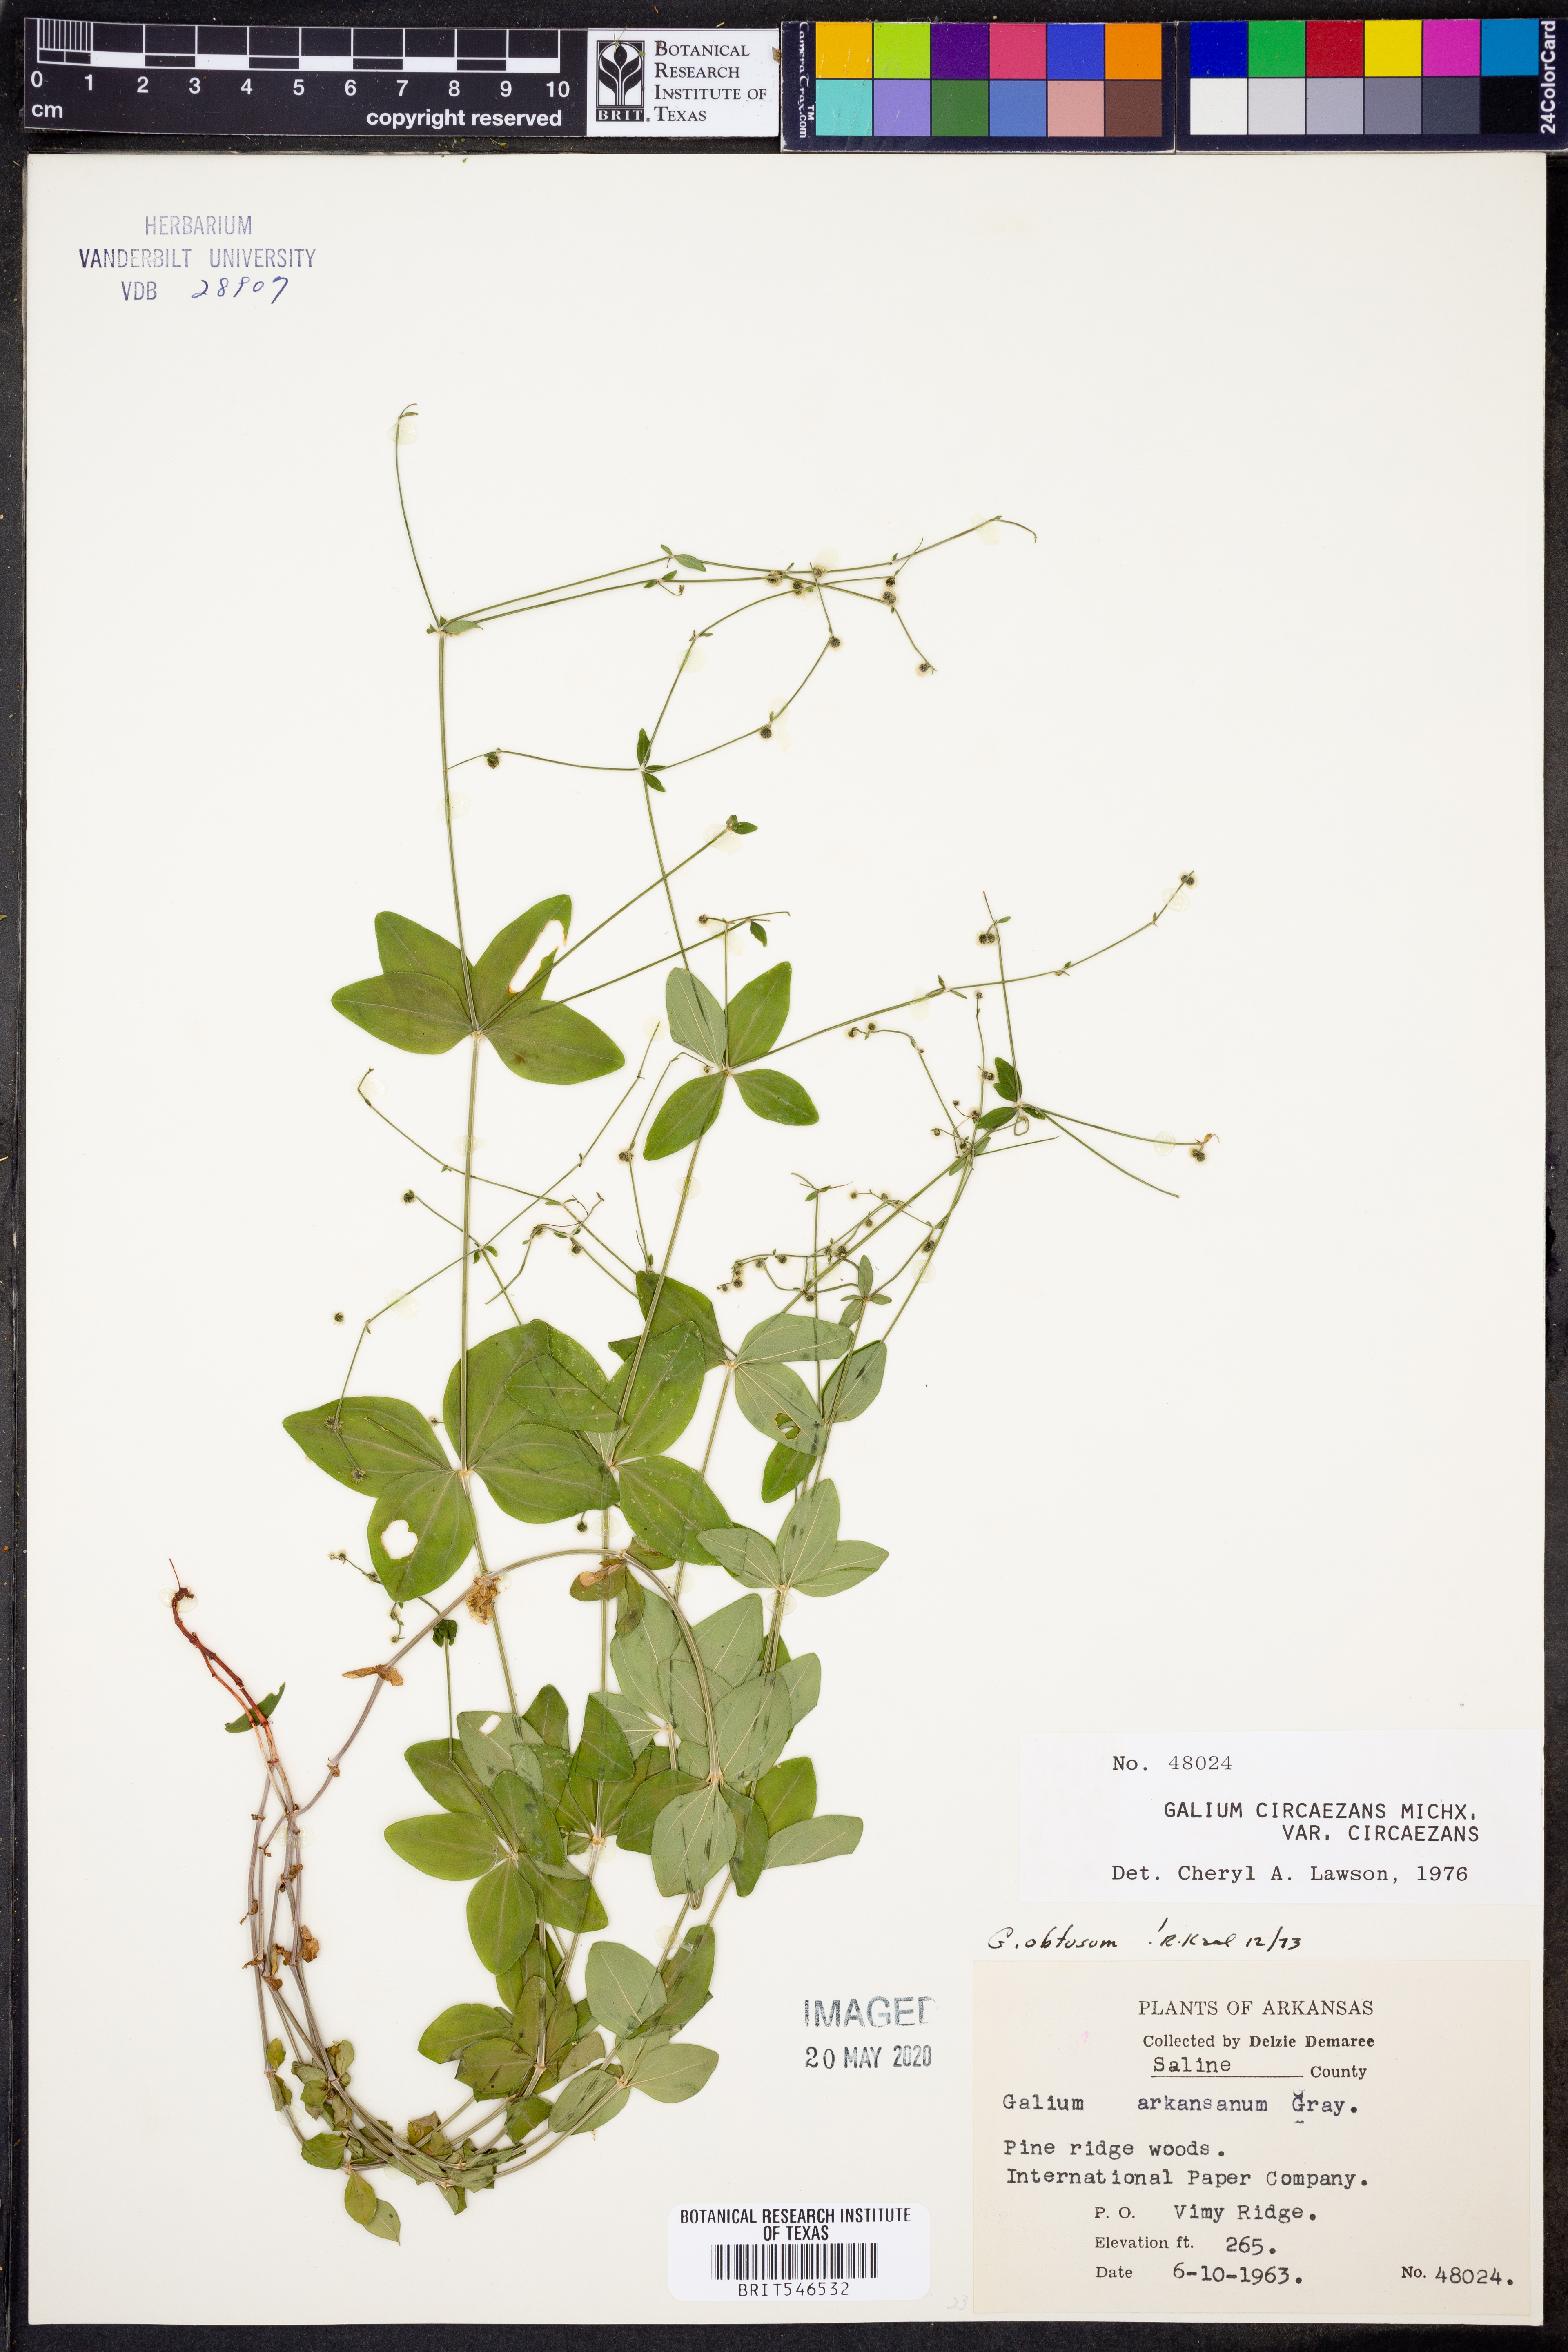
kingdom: Plantae
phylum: Tracheophyta
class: Magnoliopsida
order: Gentianales
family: Rubiaceae
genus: Galium
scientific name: Galium circaezans
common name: Forest bedstraw
